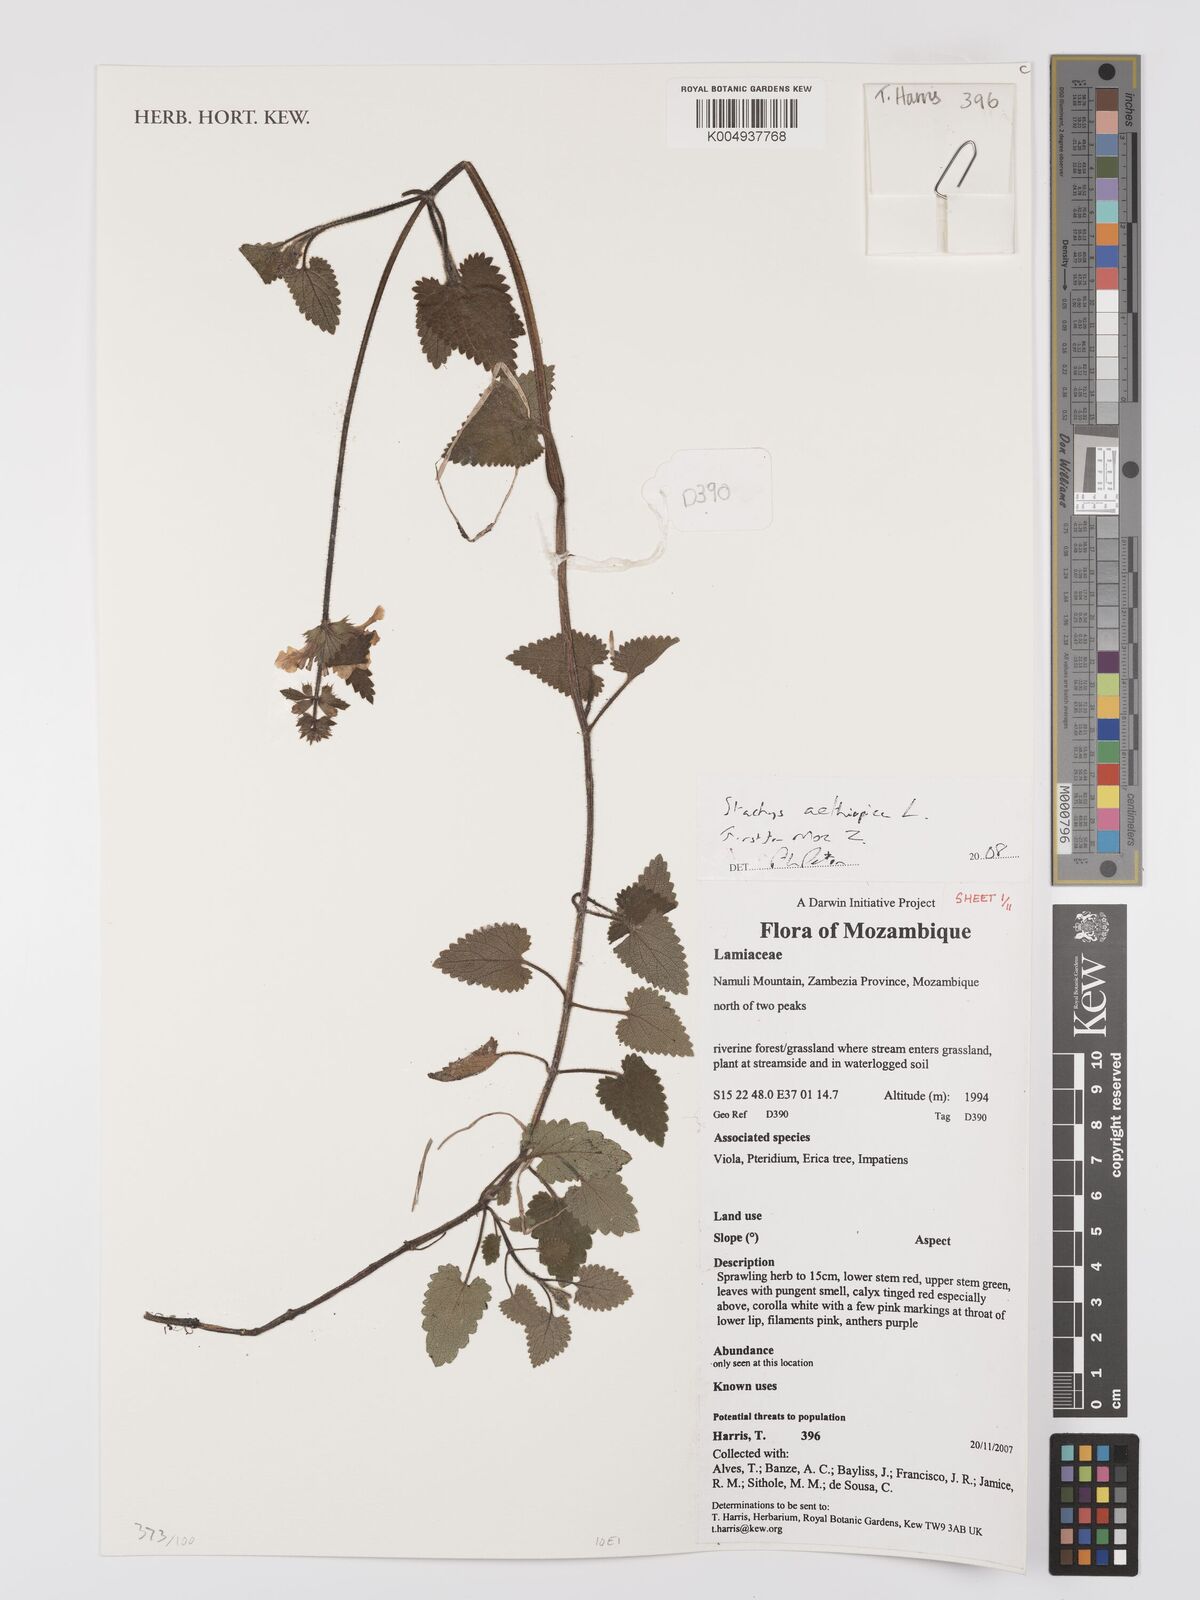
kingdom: Plantae
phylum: Tracheophyta
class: Magnoliopsida
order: Lamiales
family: Lamiaceae
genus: Stachys
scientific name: Stachys aethiopica
